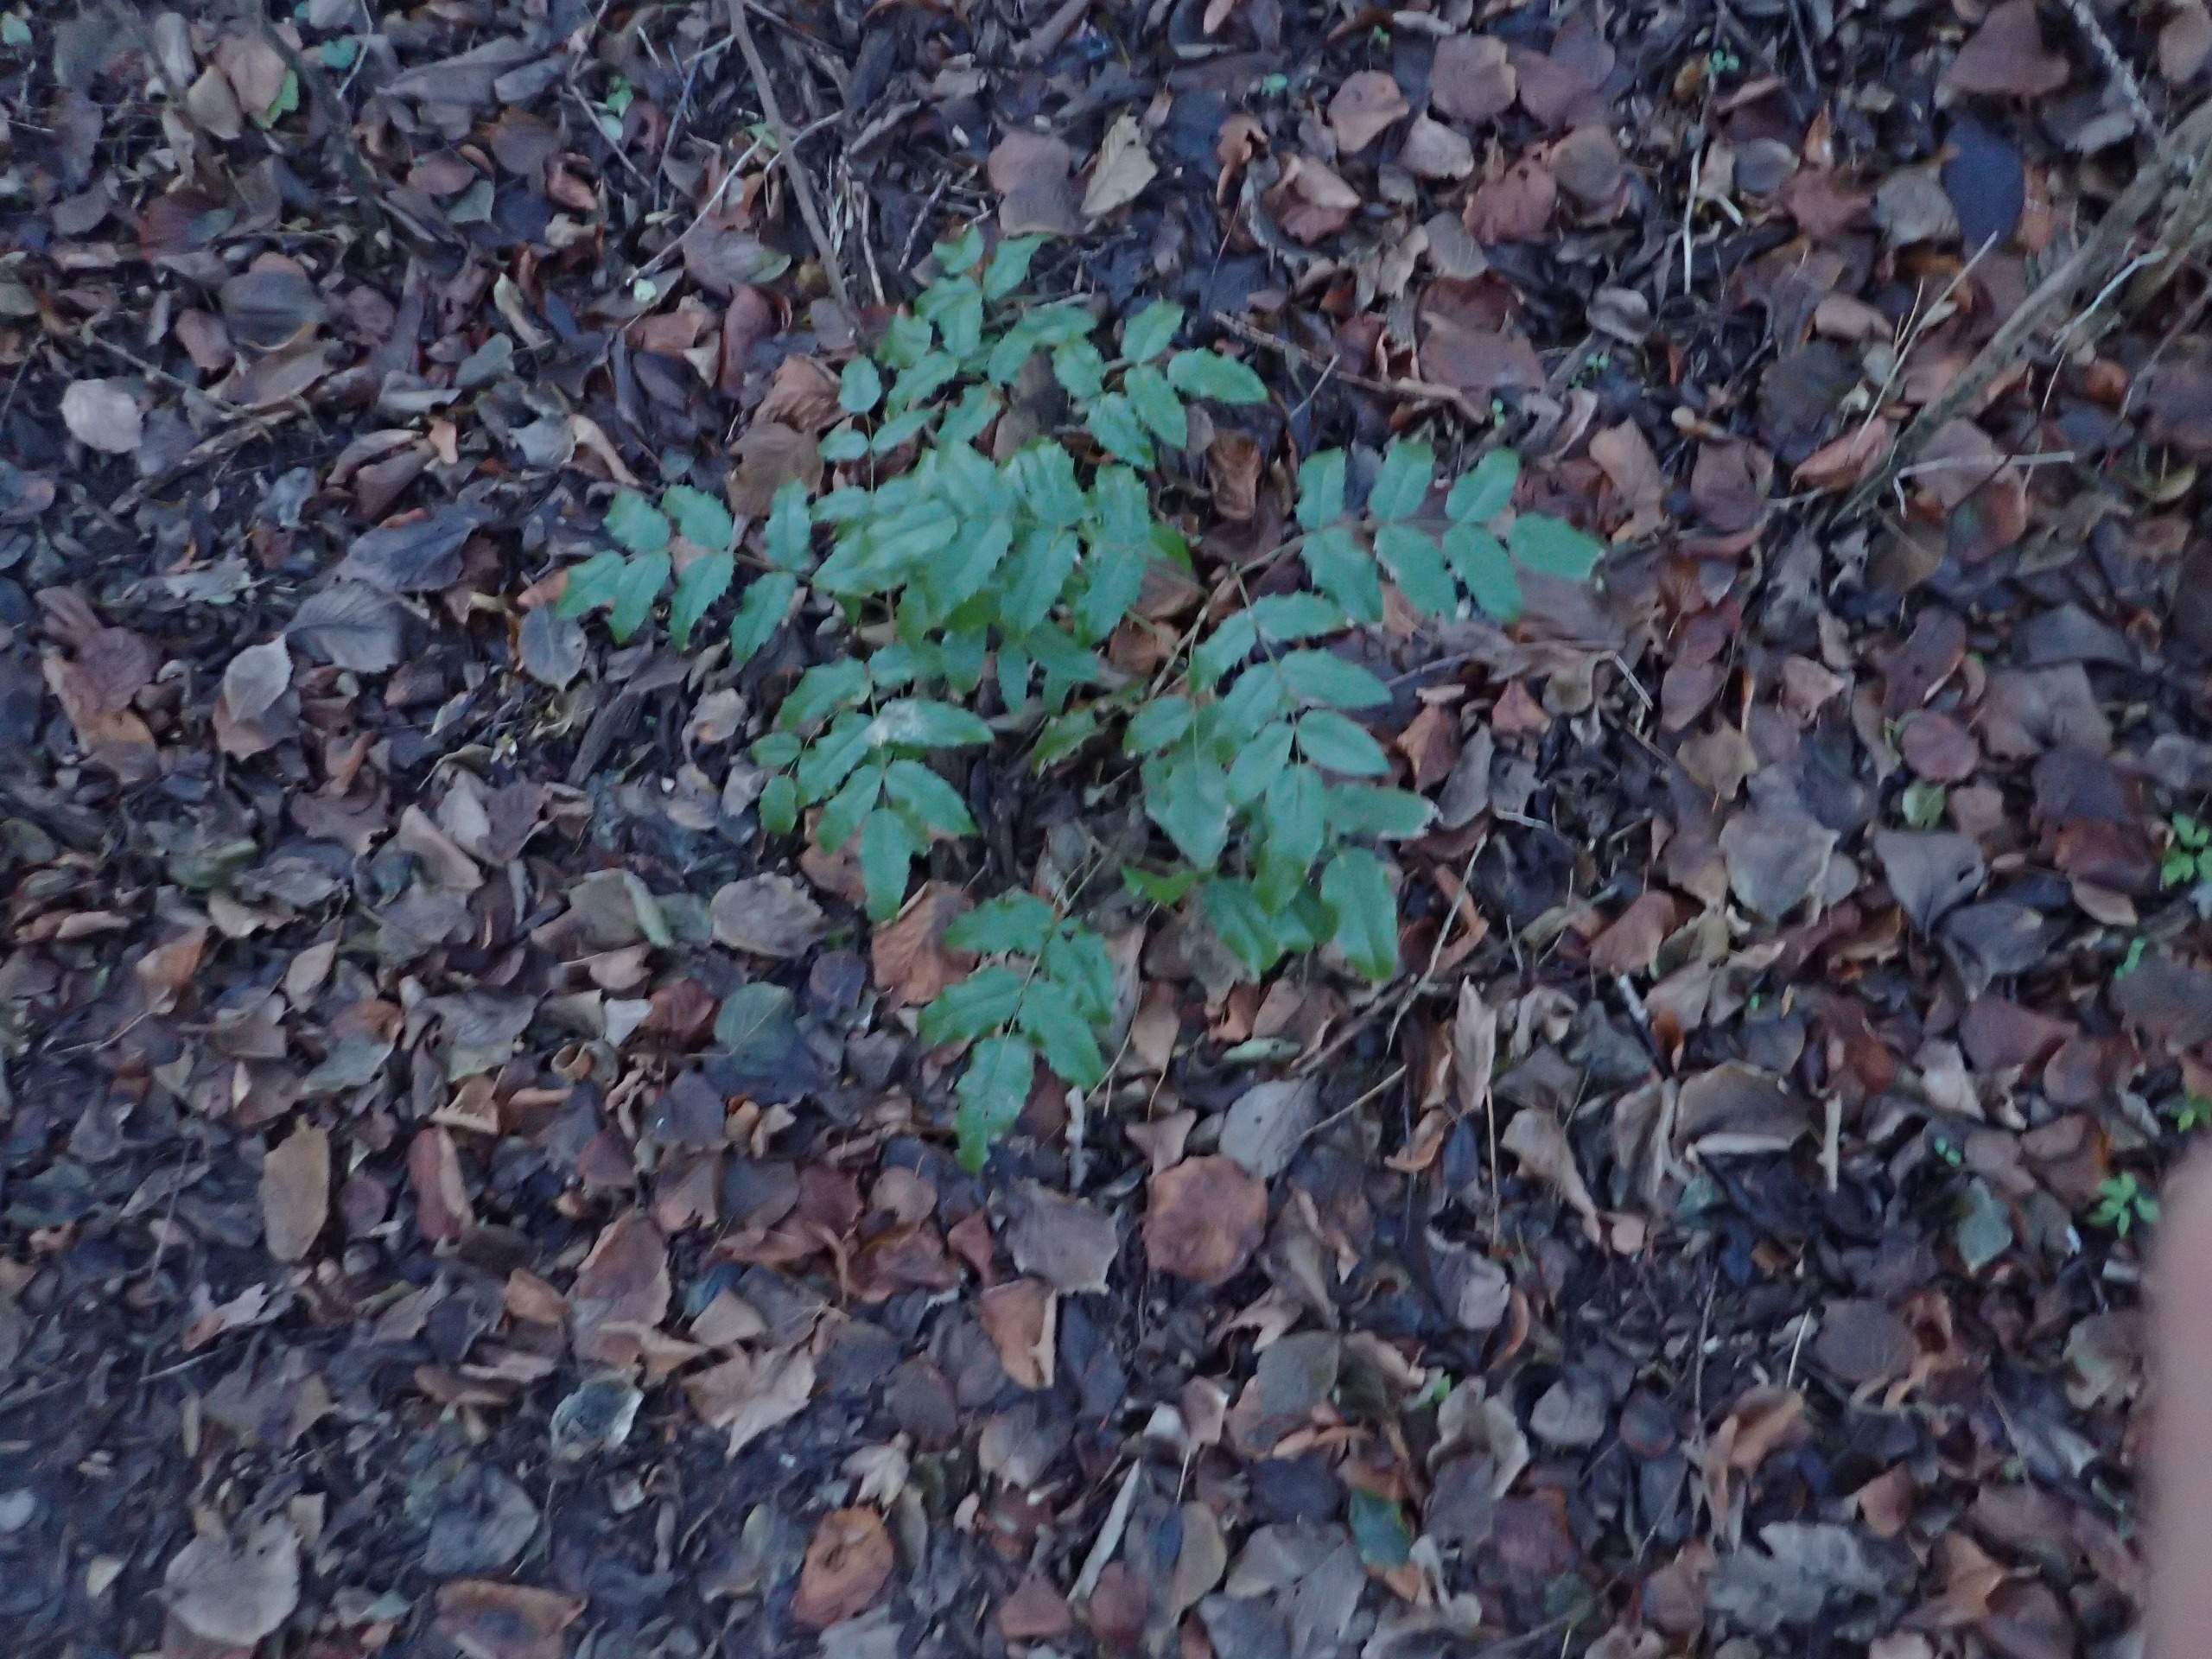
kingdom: Plantae
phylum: Tracheophyta
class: Magnoliopsida
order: Ranunculales
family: Berberidaceae
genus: Mahonia
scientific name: Mahonia aquifolium
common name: Almindelig mahonie
